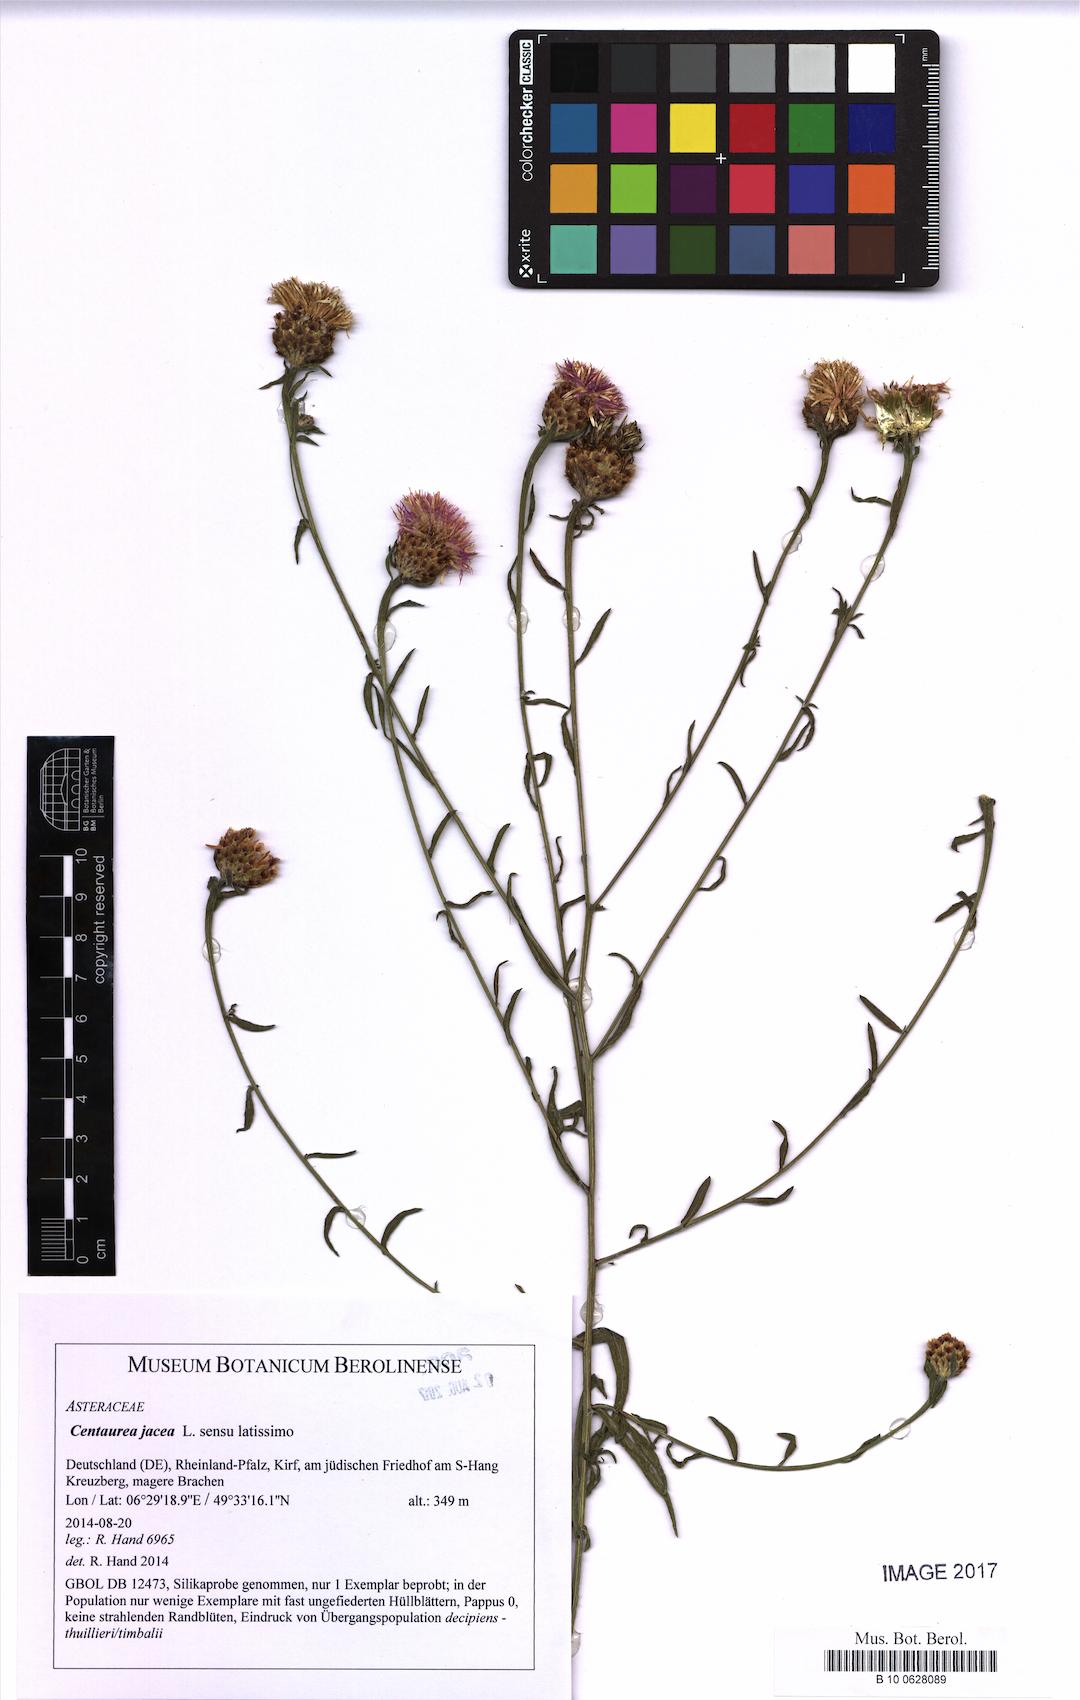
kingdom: Plantae
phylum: Tracheophyta
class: Magnoliopsida
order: Asterales
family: Asteraceae
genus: Centaurea
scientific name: Centaurea jacea
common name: Brown knapweed
